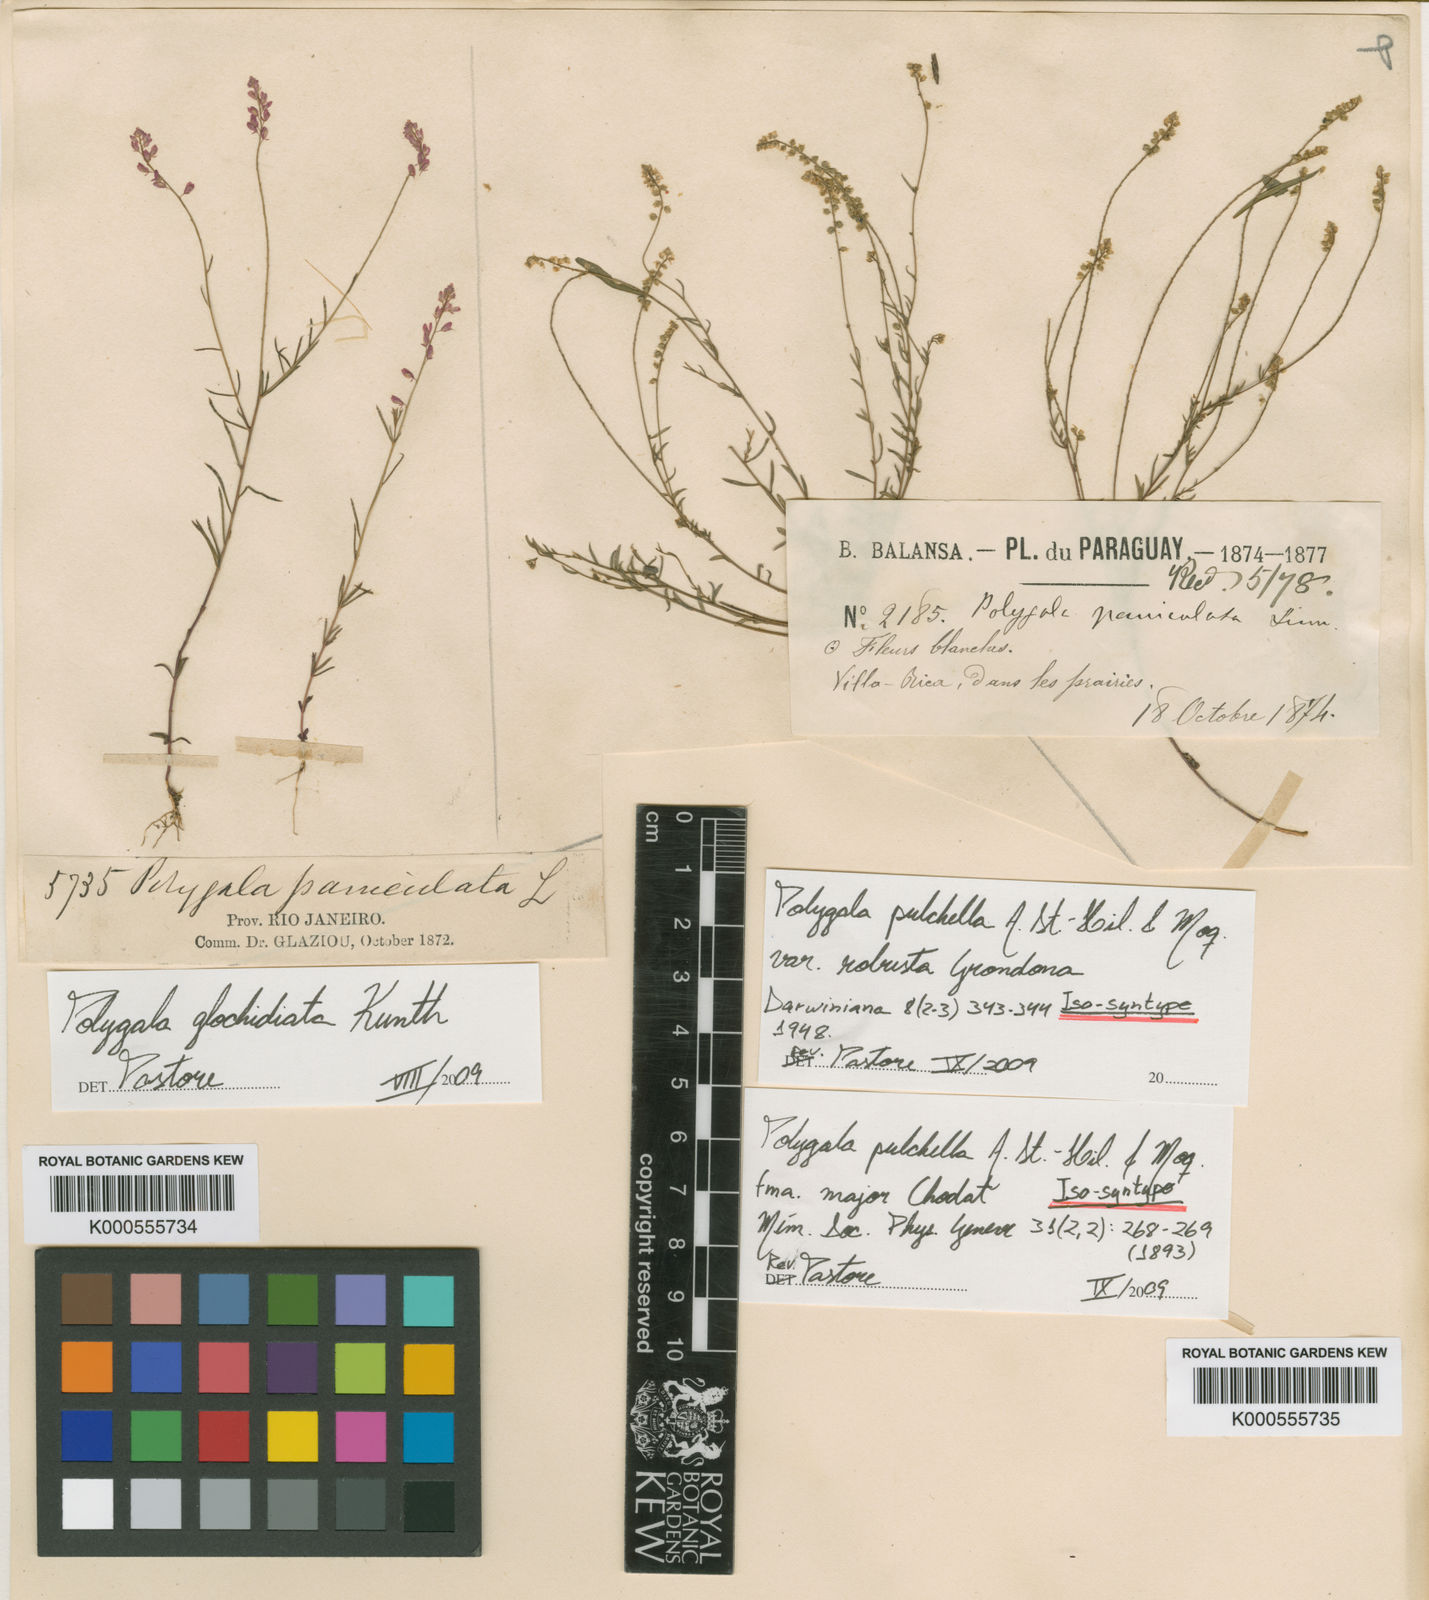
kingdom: Plantae
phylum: Tracheophyta
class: Magnoliopsida
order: Fabales
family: Polygalaceae
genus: Polygala
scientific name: Polygala glochidiata
